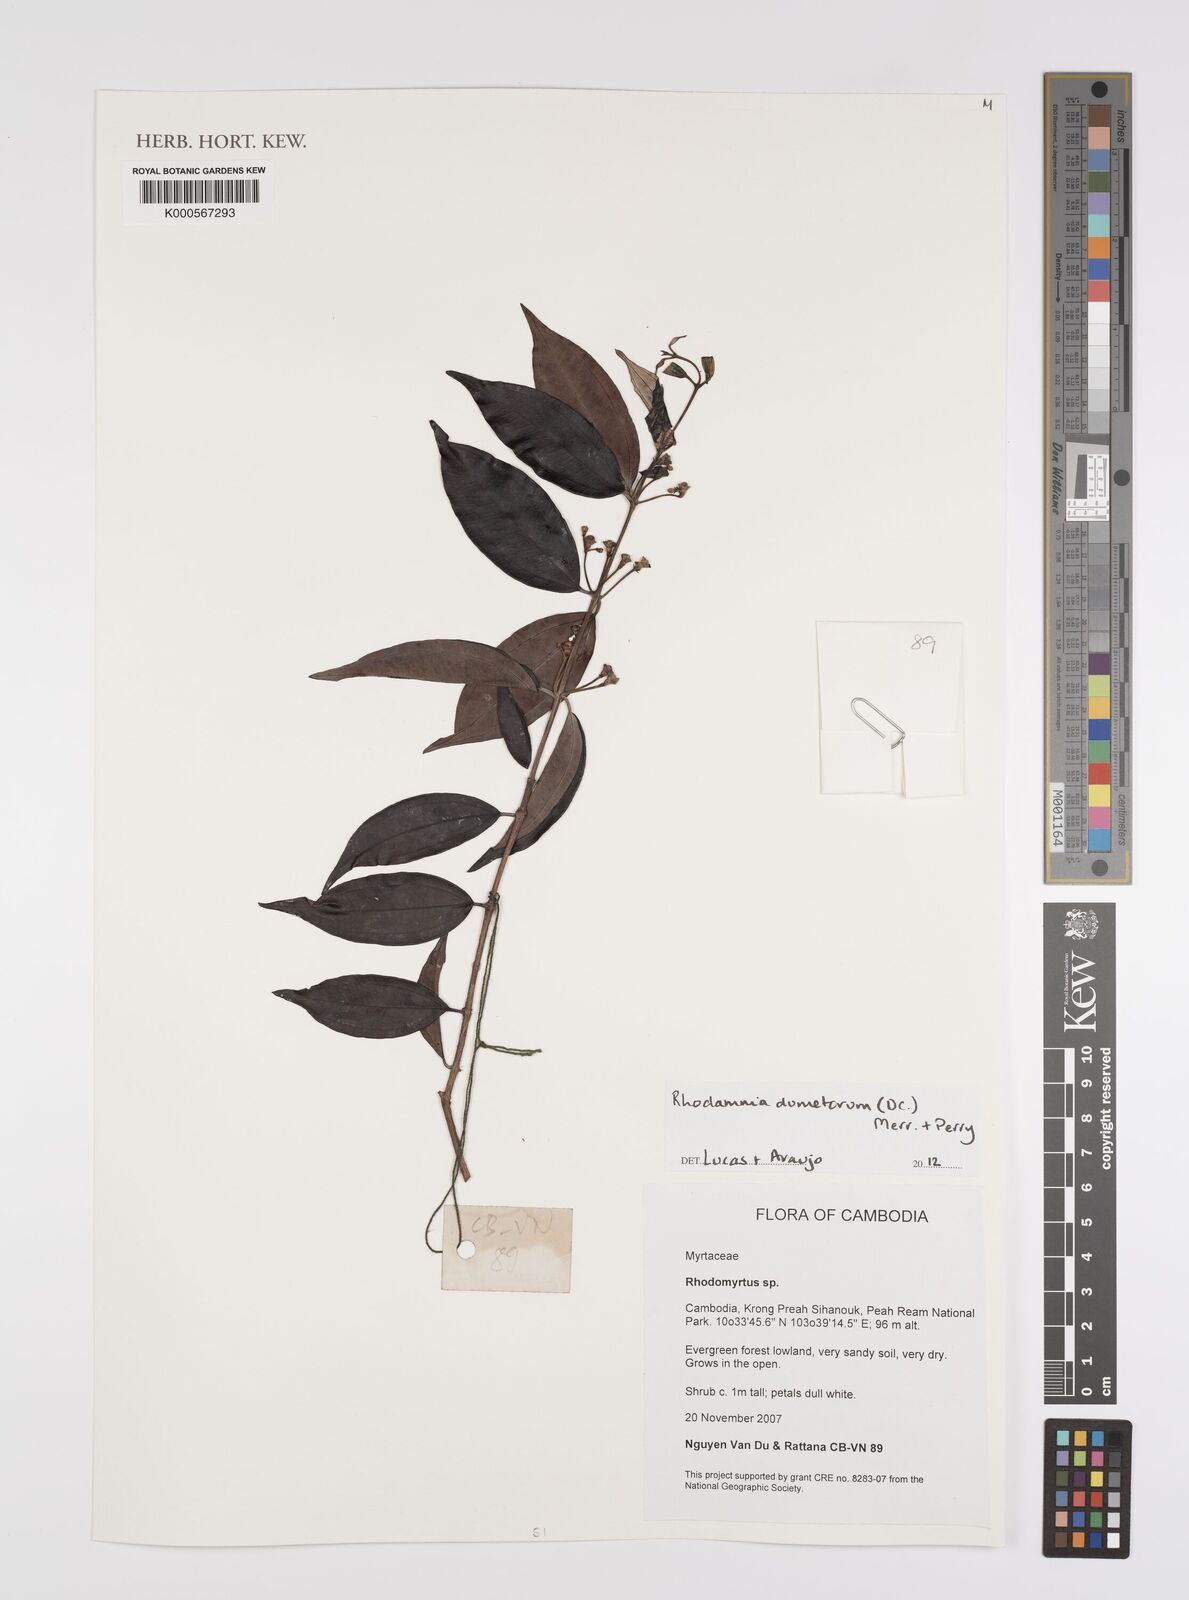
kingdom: Plantae
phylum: Tracheophyta
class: Magnoliopsida
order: Myrtales
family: Myrtaceae
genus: Rhodomyrtus
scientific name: Rhodomyrtus
